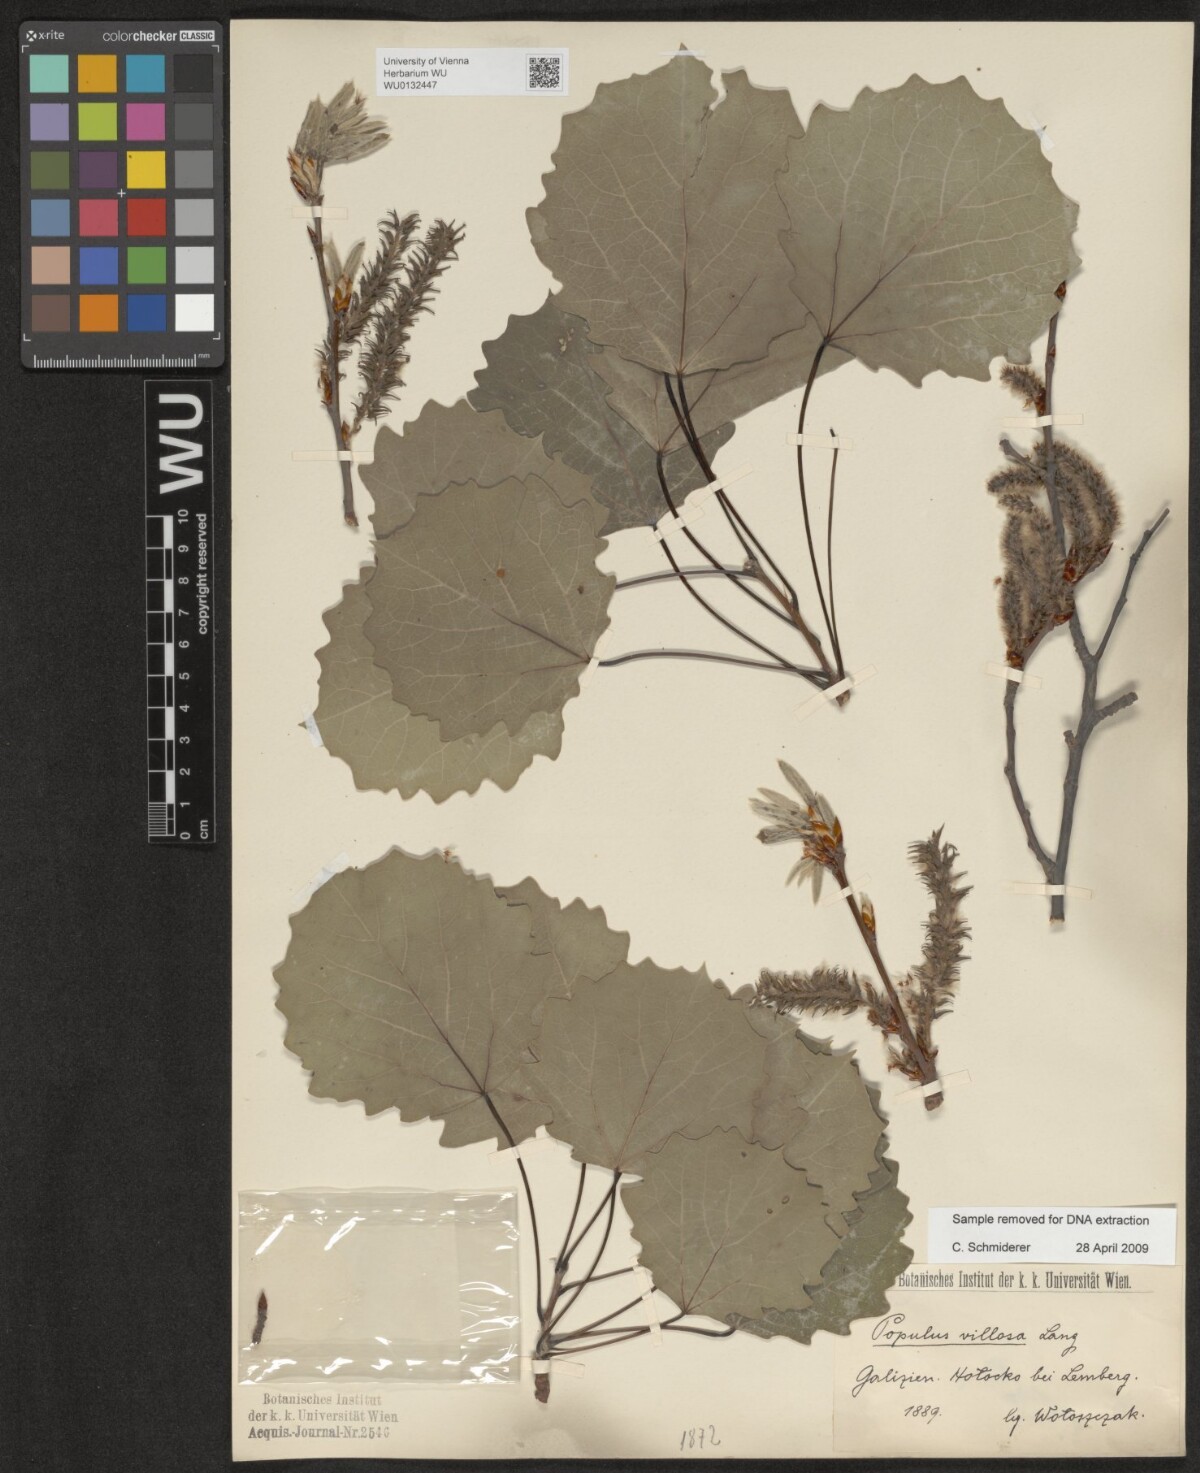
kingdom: Plantae
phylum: Tracheophyta
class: Magnoliopsida
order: Malpighiales
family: Salicaceae
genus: Populus
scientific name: Populus tremula
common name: European aspen
